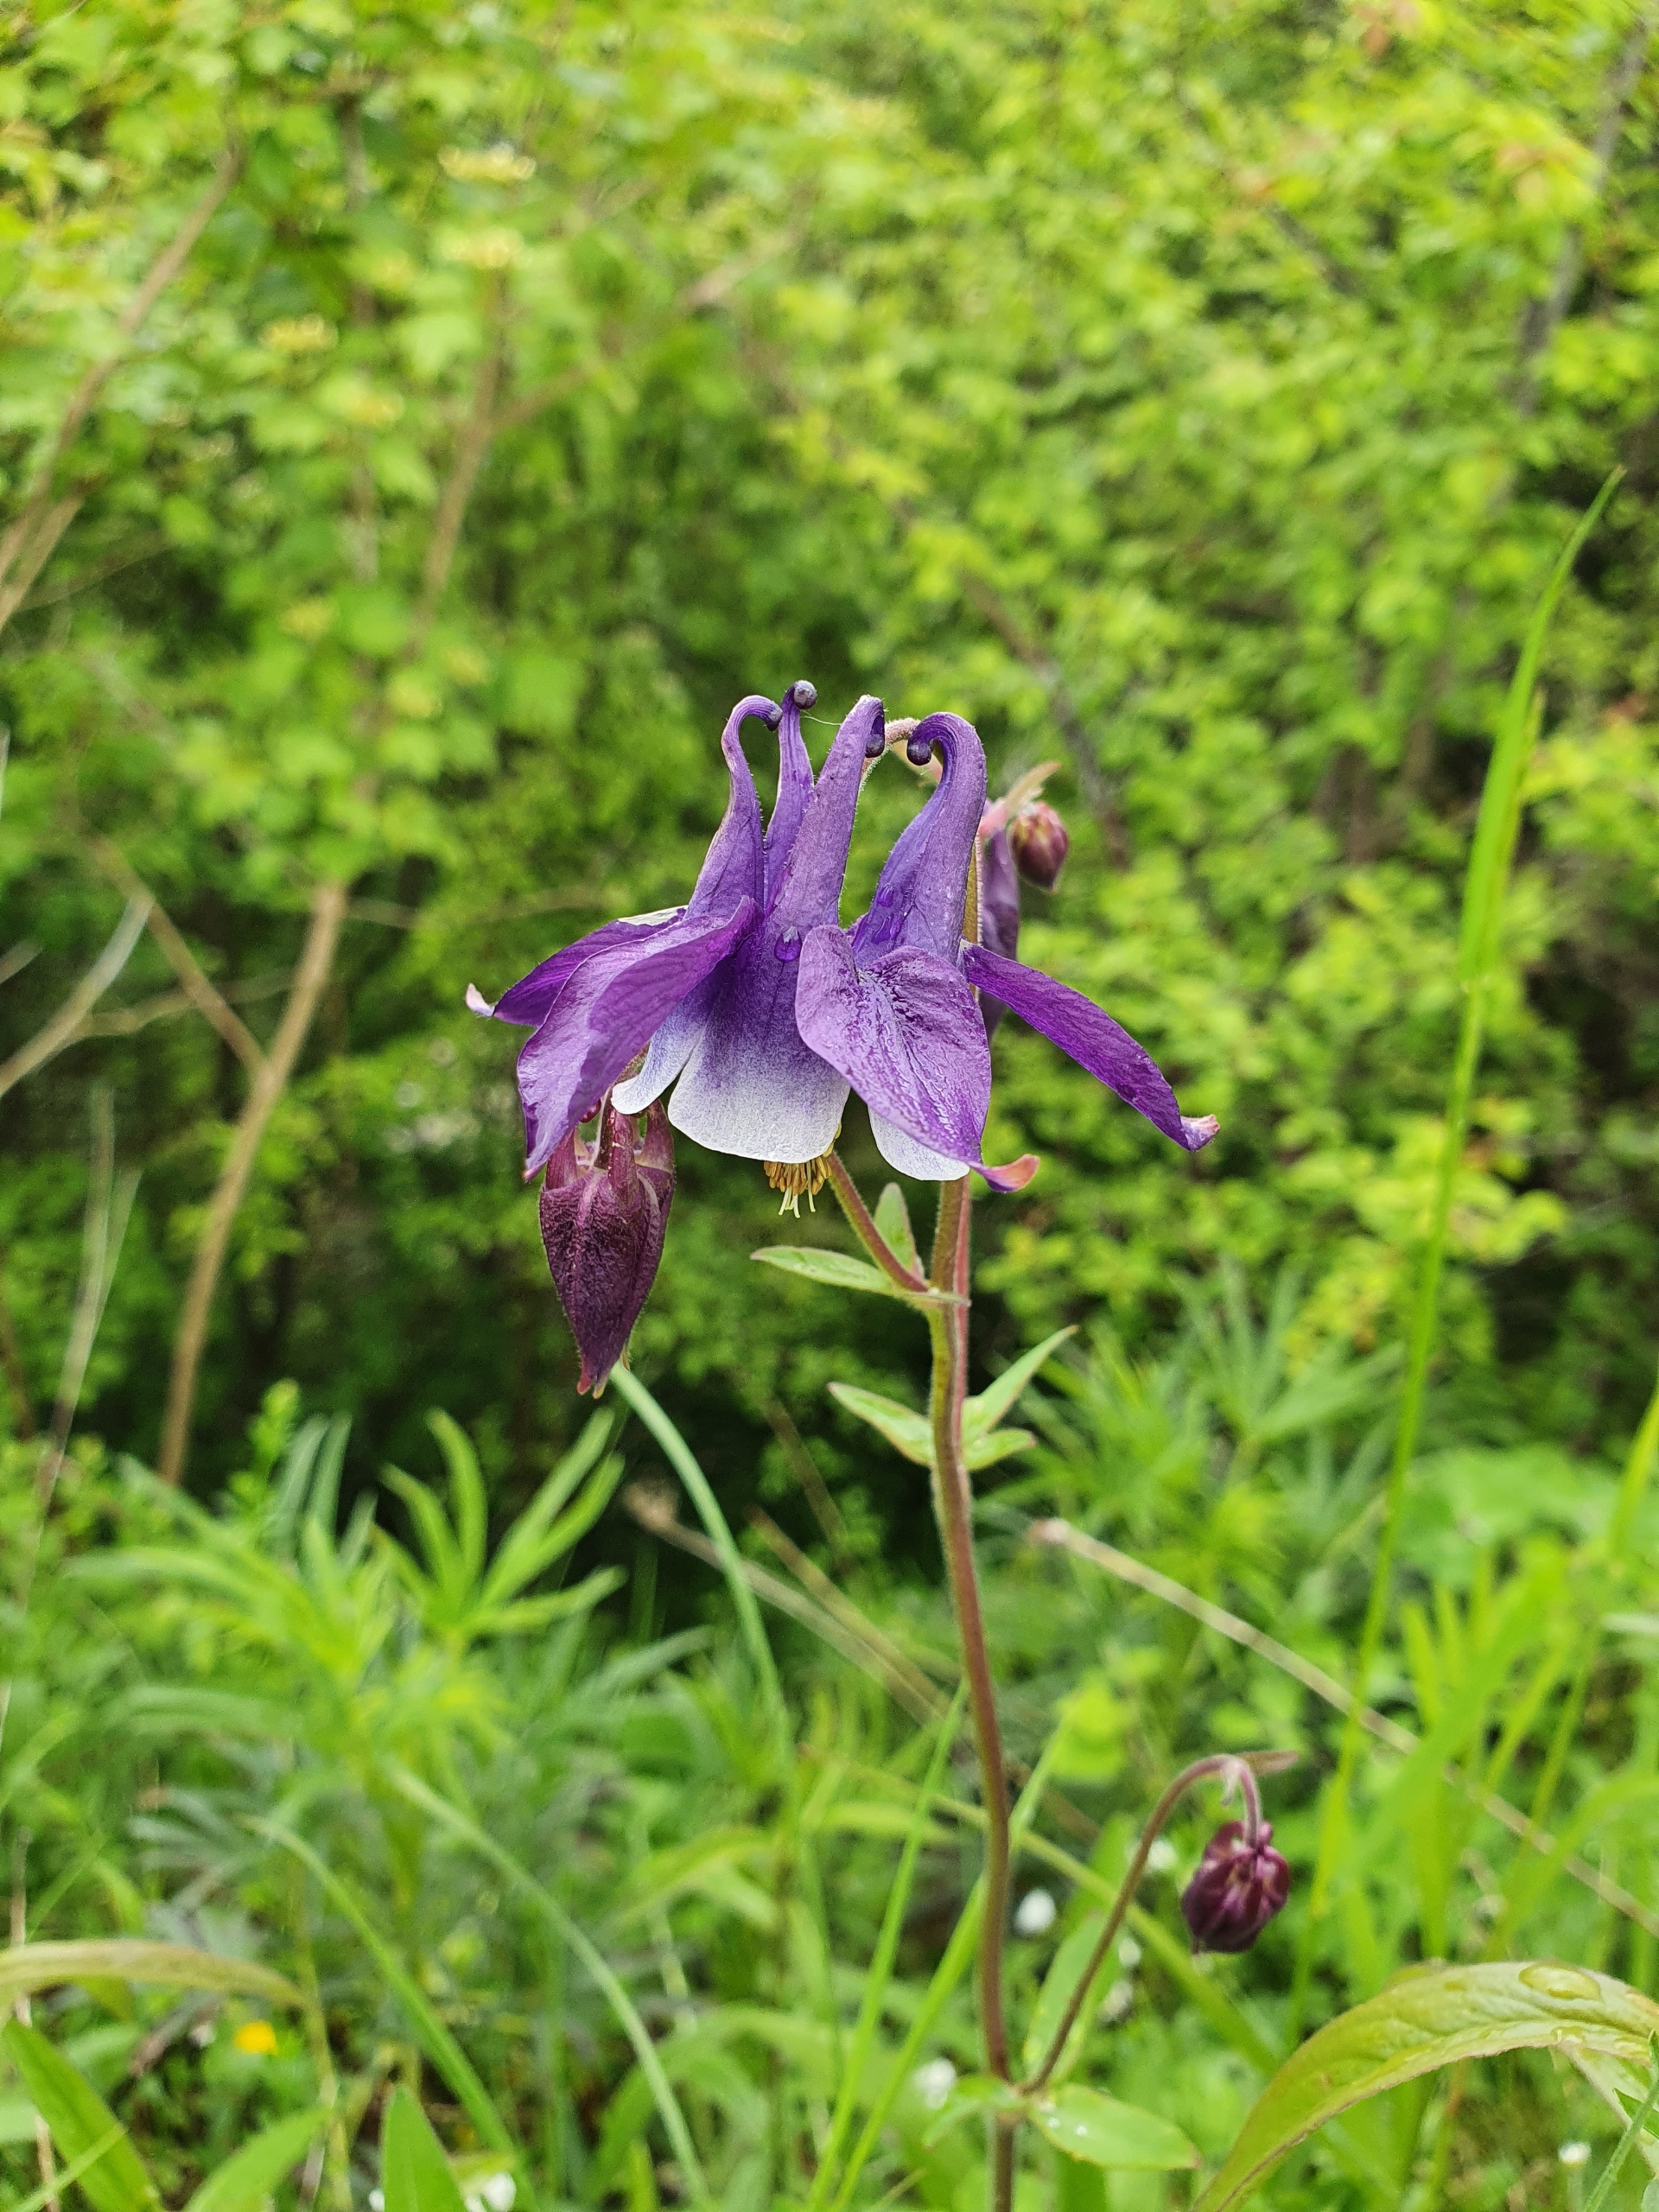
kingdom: Plantae
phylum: Tracheophyta
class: Magnoliopsida
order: Ranunculales
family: Ranunculaceae
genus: Aquilegia
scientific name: Aquilegia vulgaris
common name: Akeleje
